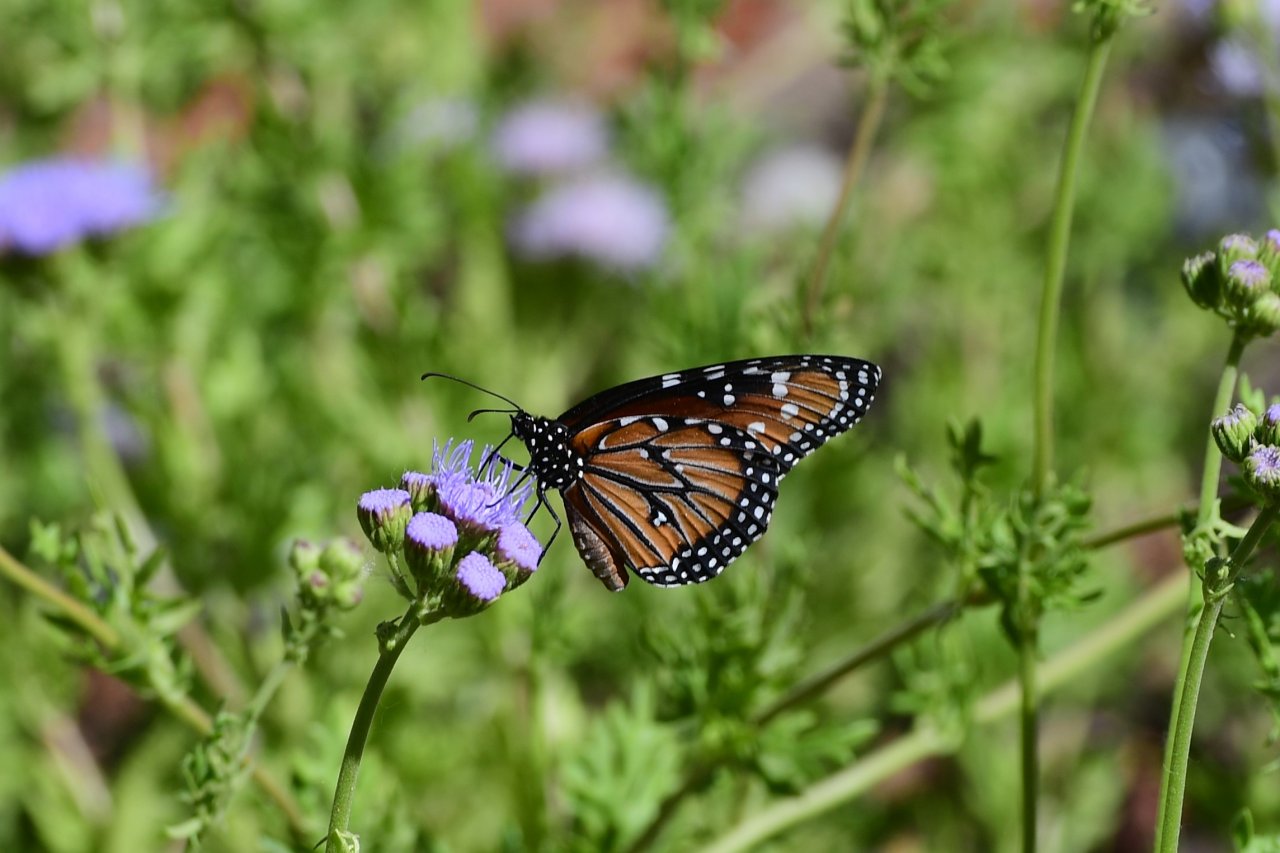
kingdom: Animalia
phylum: Arthropoda
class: Insecta
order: Lepidoptera
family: Nymphalidae
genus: Danaus
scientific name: Danaus gilippus
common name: Queen
